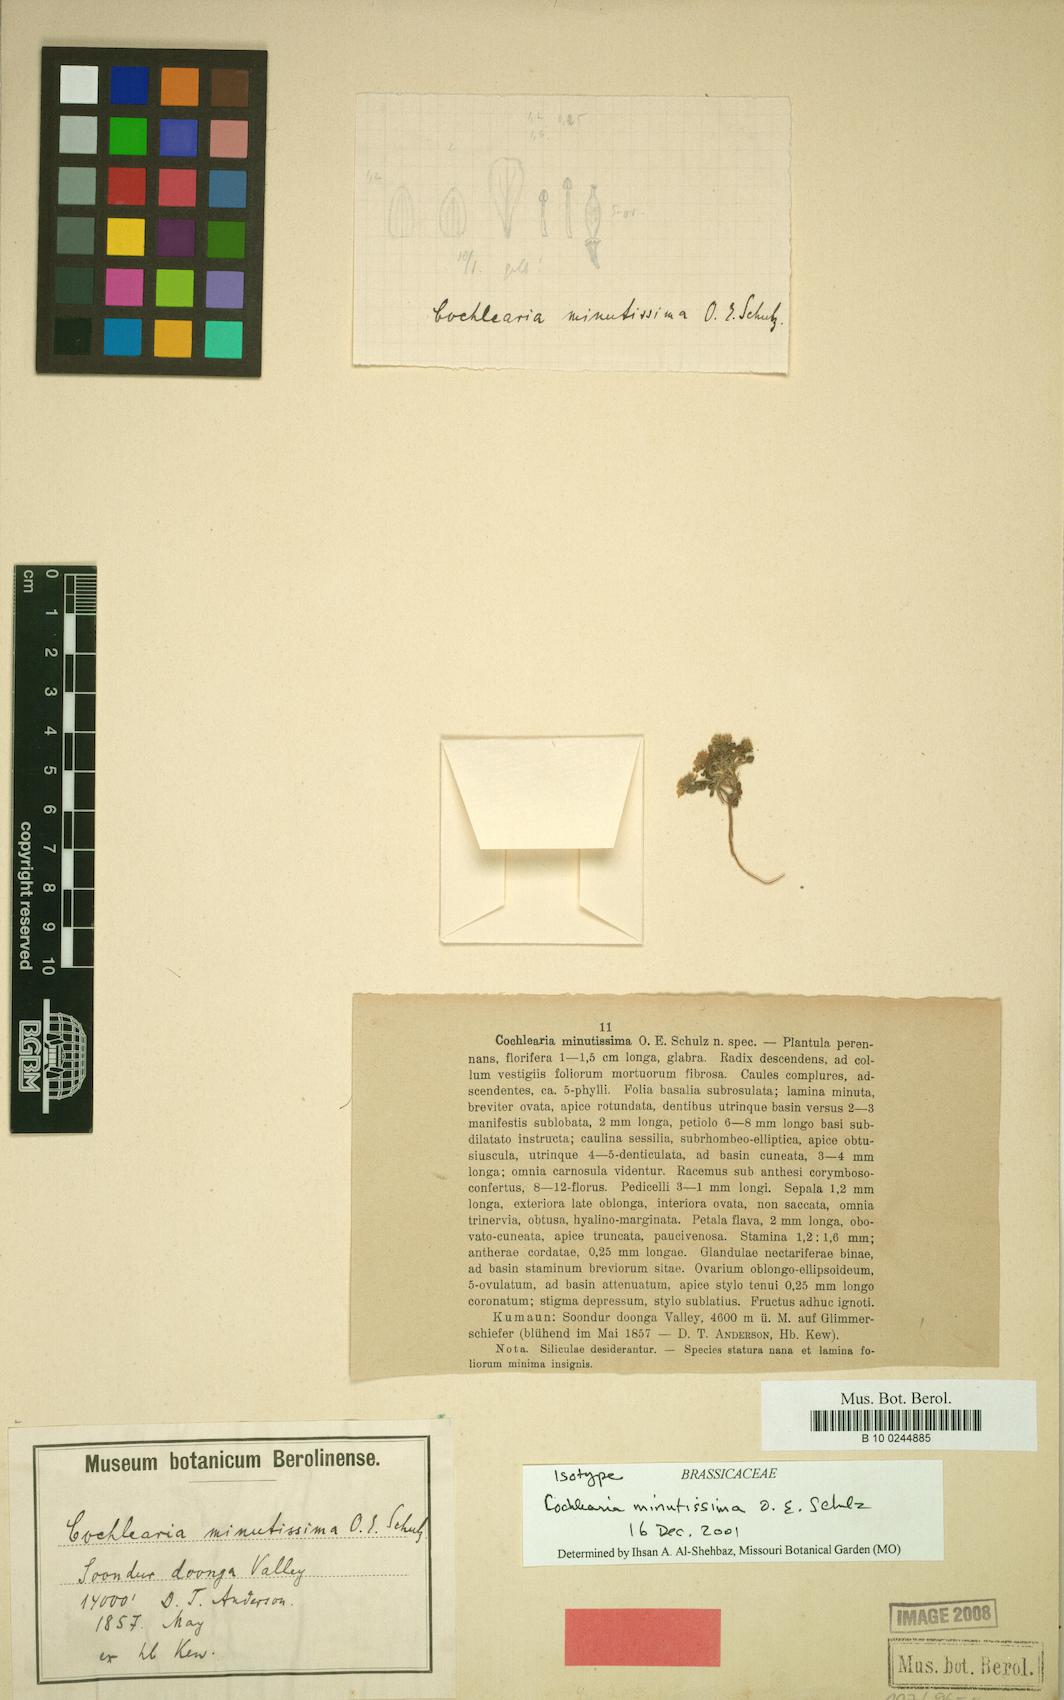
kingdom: Plantae
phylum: Tracheophyta
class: Magnoliopsida
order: Brassicales
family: Brassicaceae
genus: Eutrema
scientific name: Eutrema minutissimum
